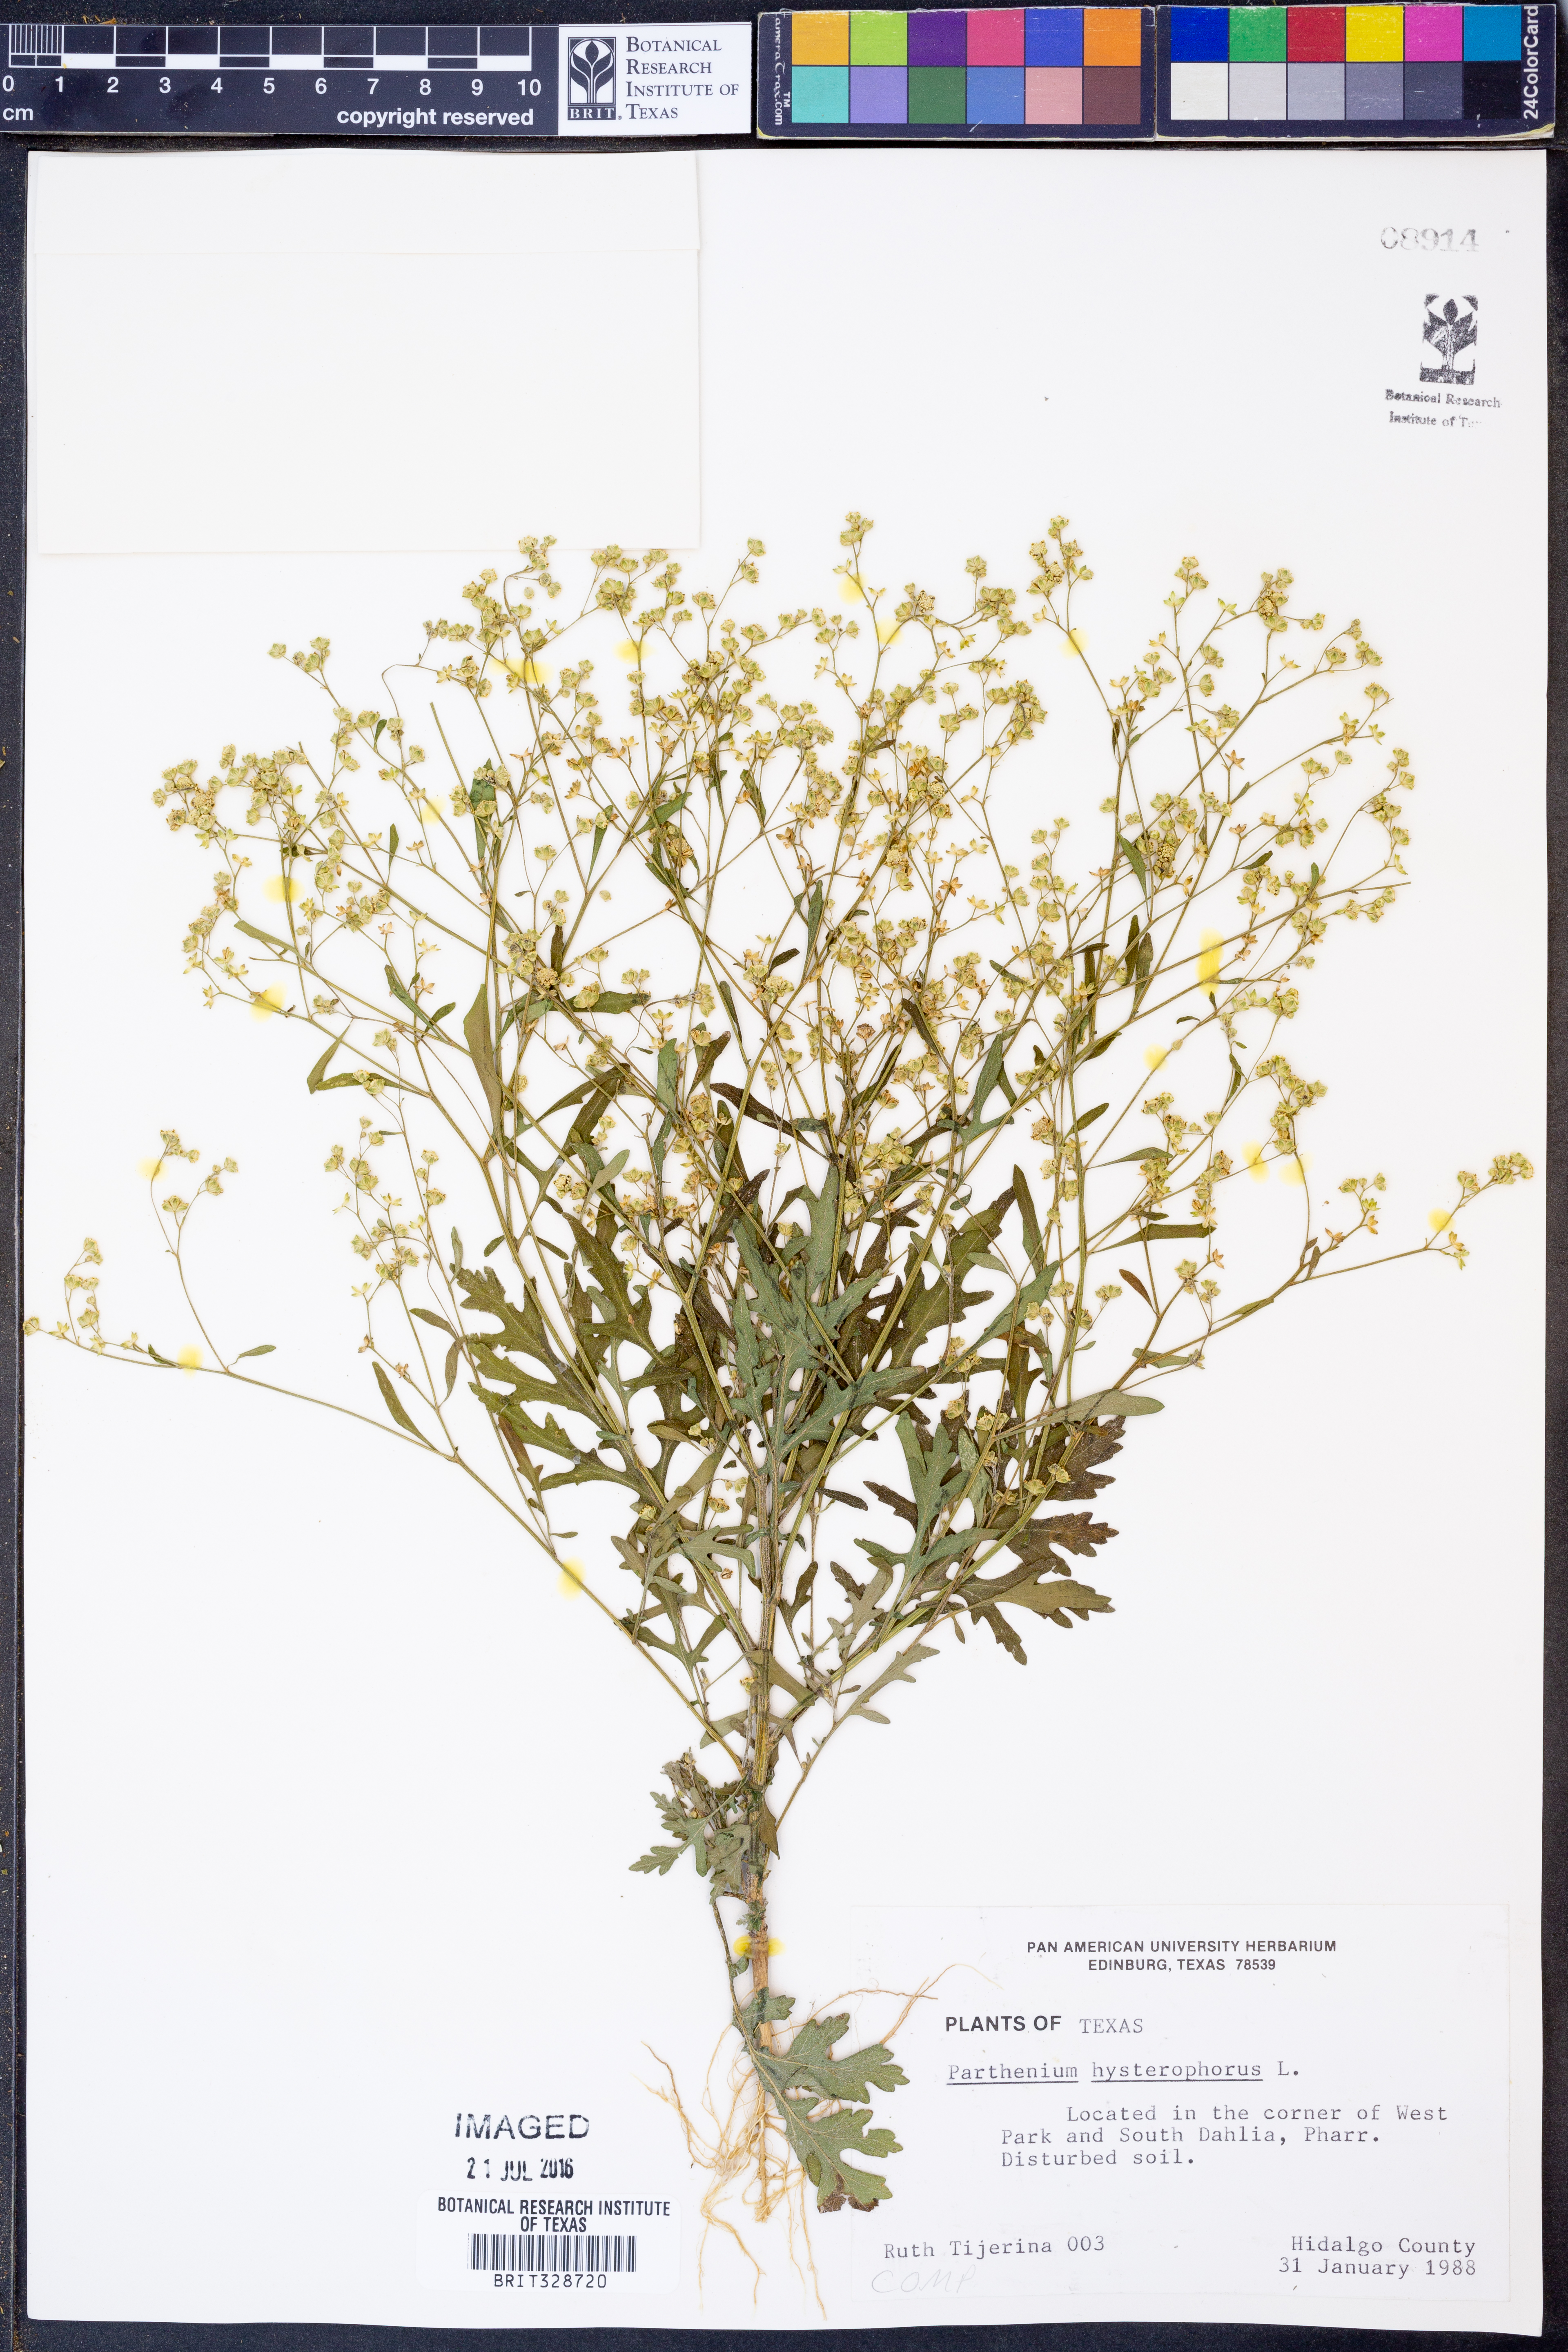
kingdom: Plantae
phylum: Tracheophyta
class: Magnoliopsida
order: Asterales
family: Asteraceae
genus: Parthenium
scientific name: Parthenium hysterophorus
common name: Santa maria feverfew
